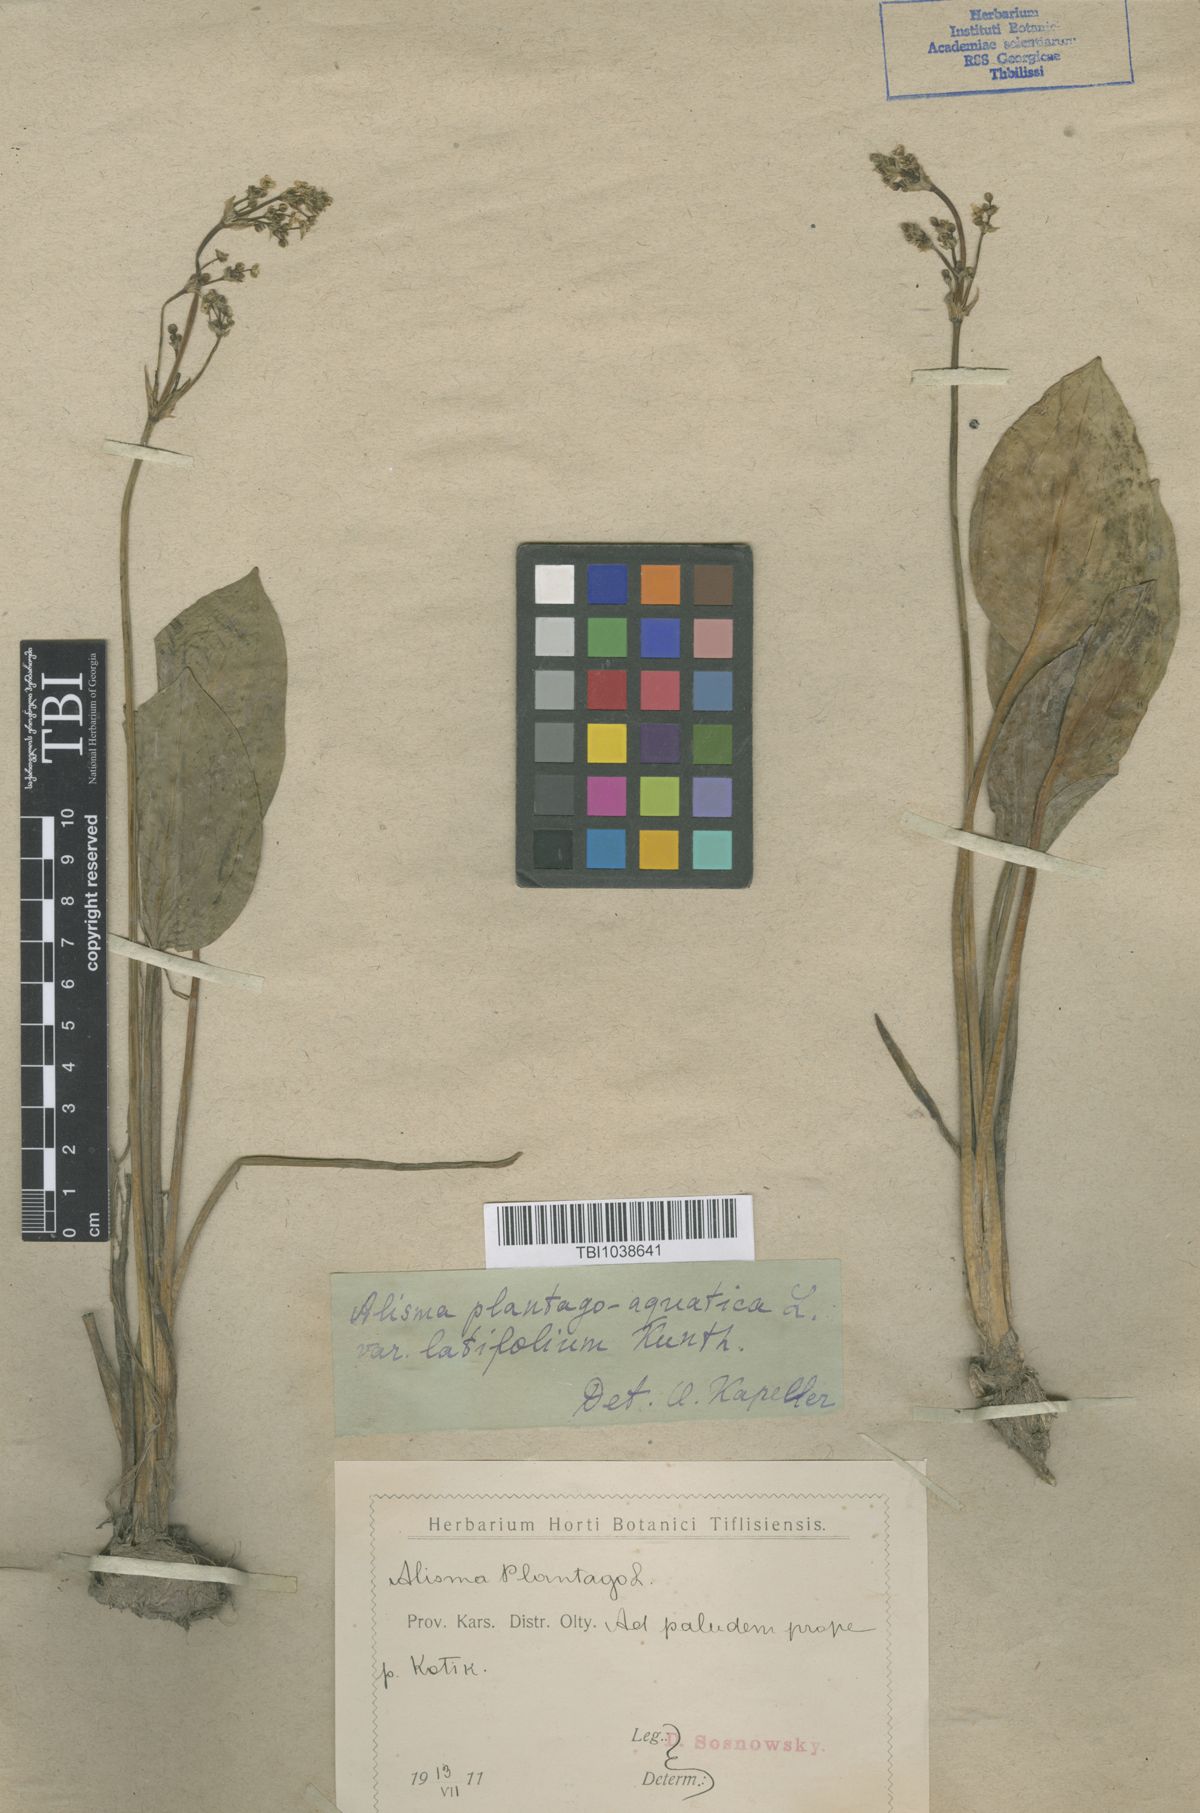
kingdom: Plantae
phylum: Tracheophyta
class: Liliopsida
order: Alismatales
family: Alismataceae
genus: Alisma
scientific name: Alisma plantago-aquatica
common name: Water-plantain
